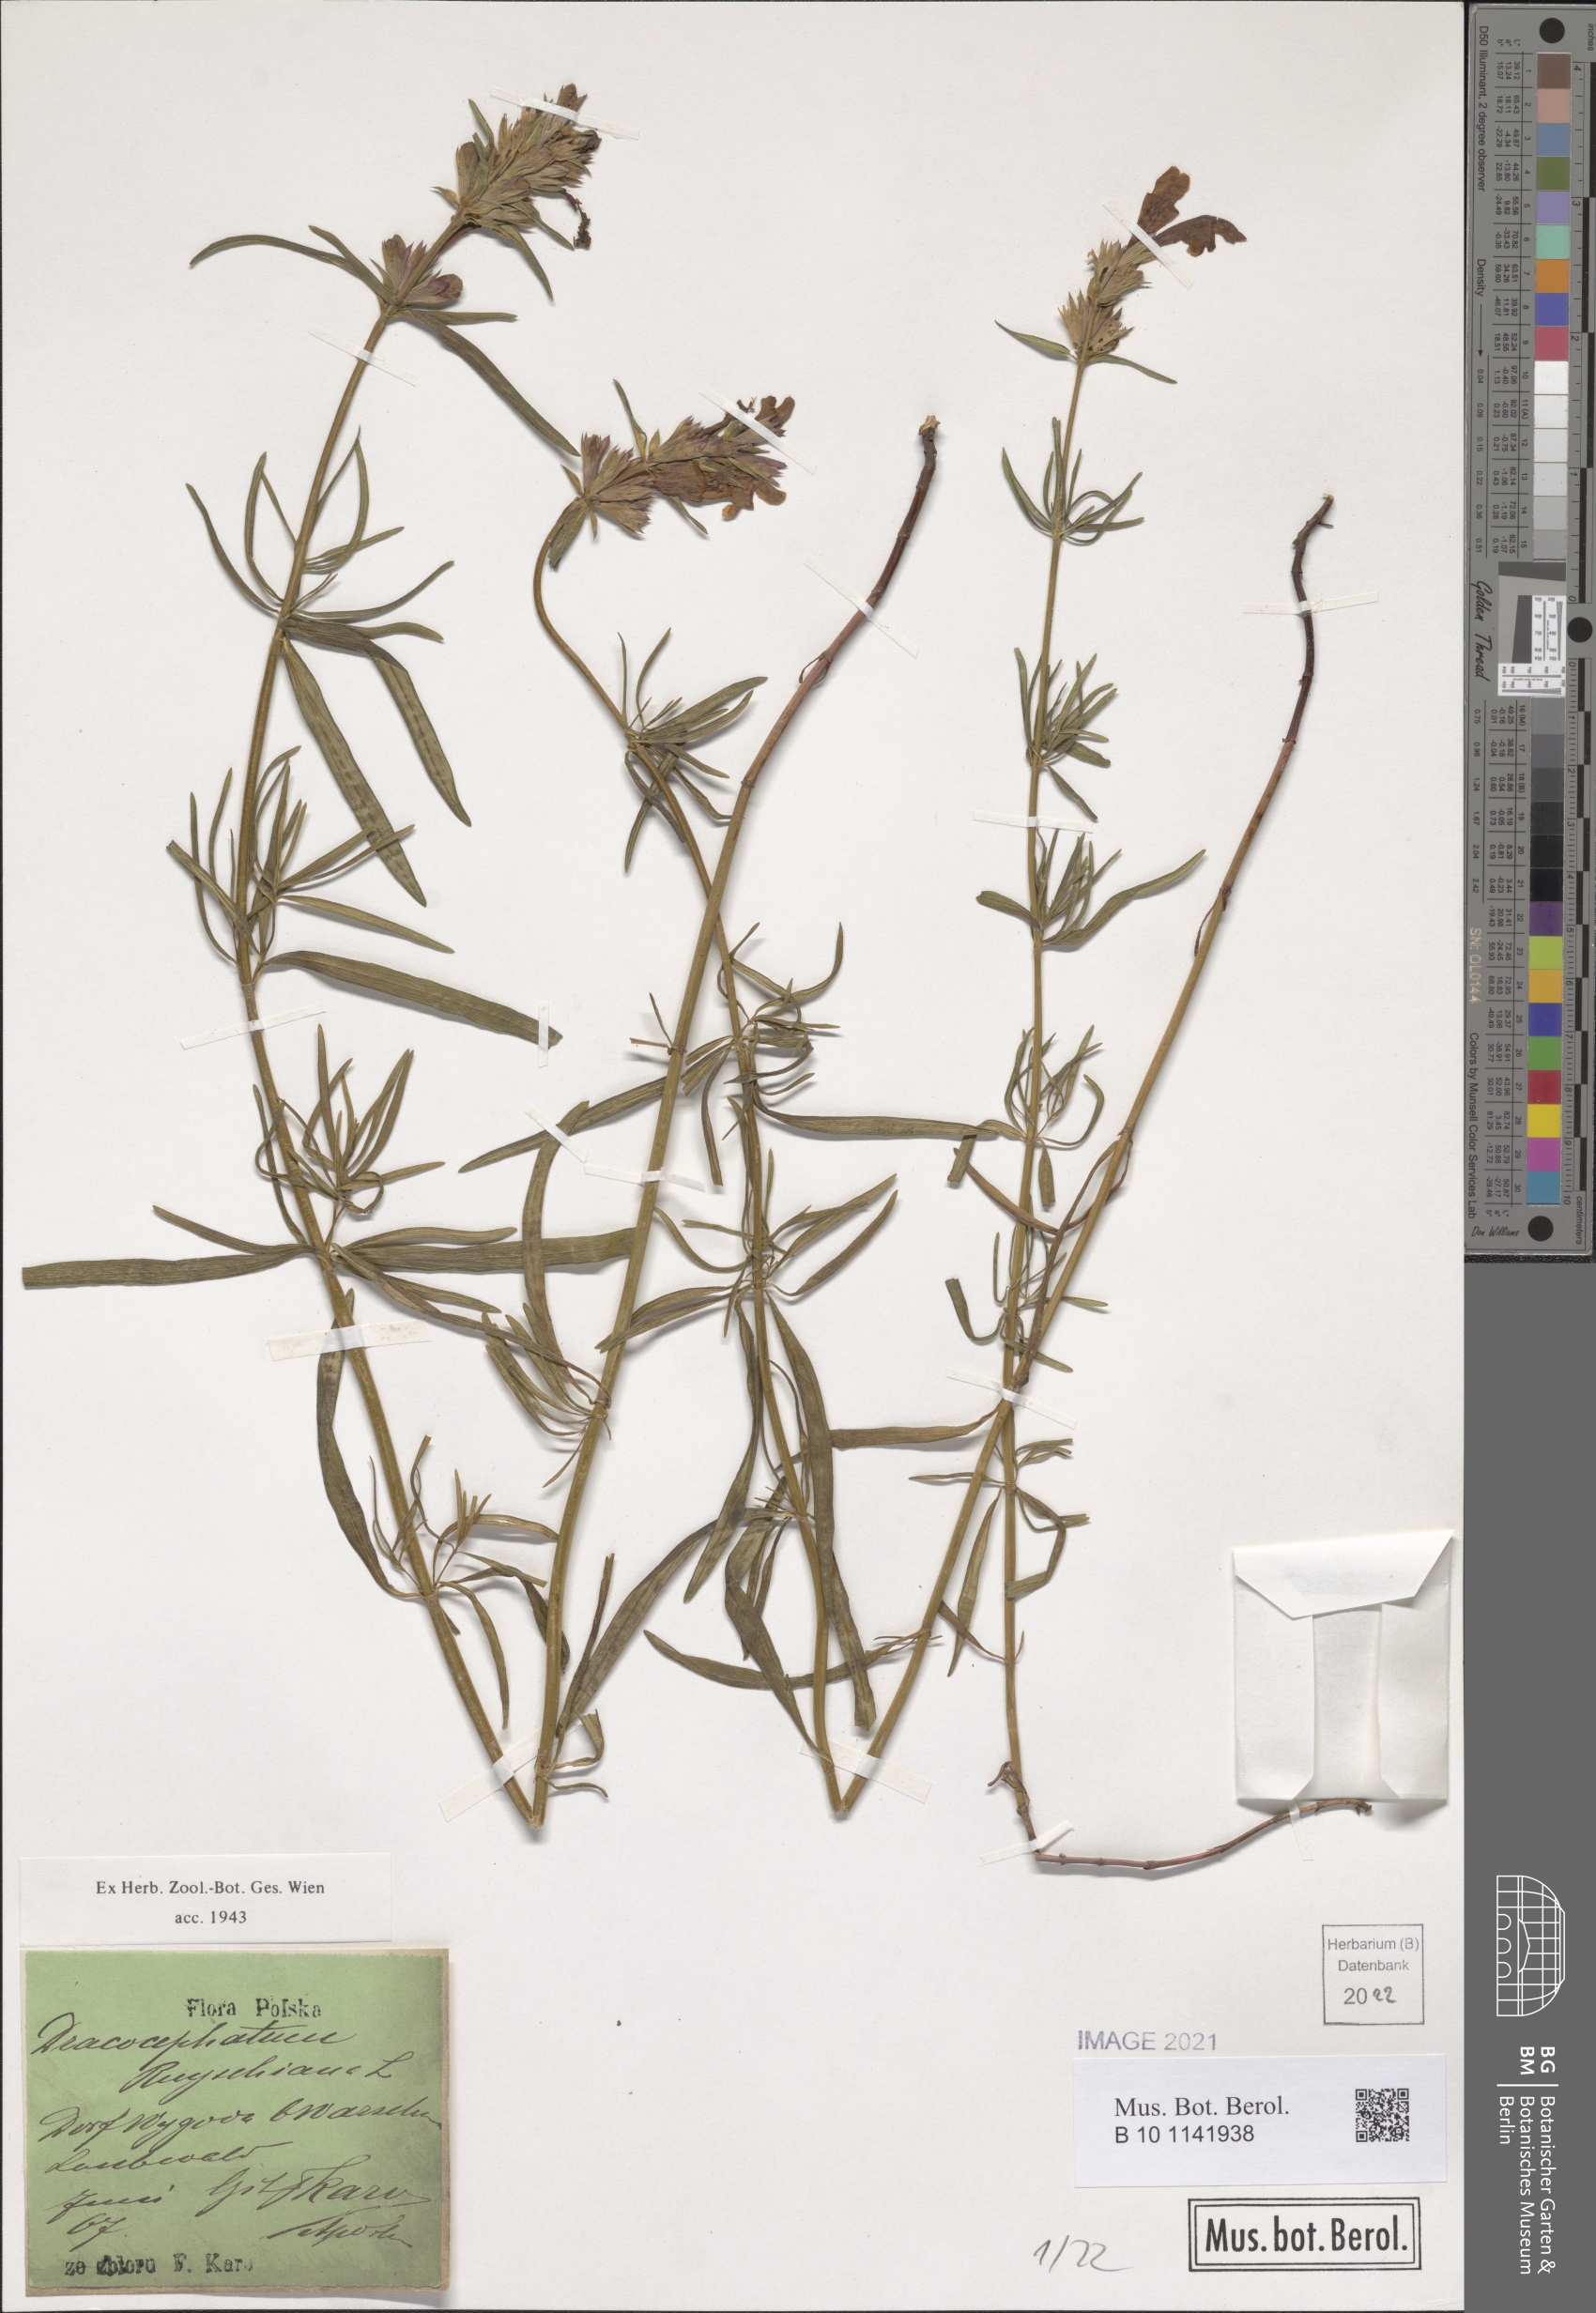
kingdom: Plantae
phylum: Tracheophyta
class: Magnoliopsida
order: Lamiales
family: Lamiaceae
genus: Dracocephalum
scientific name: Dracocephalum ruyschiana
